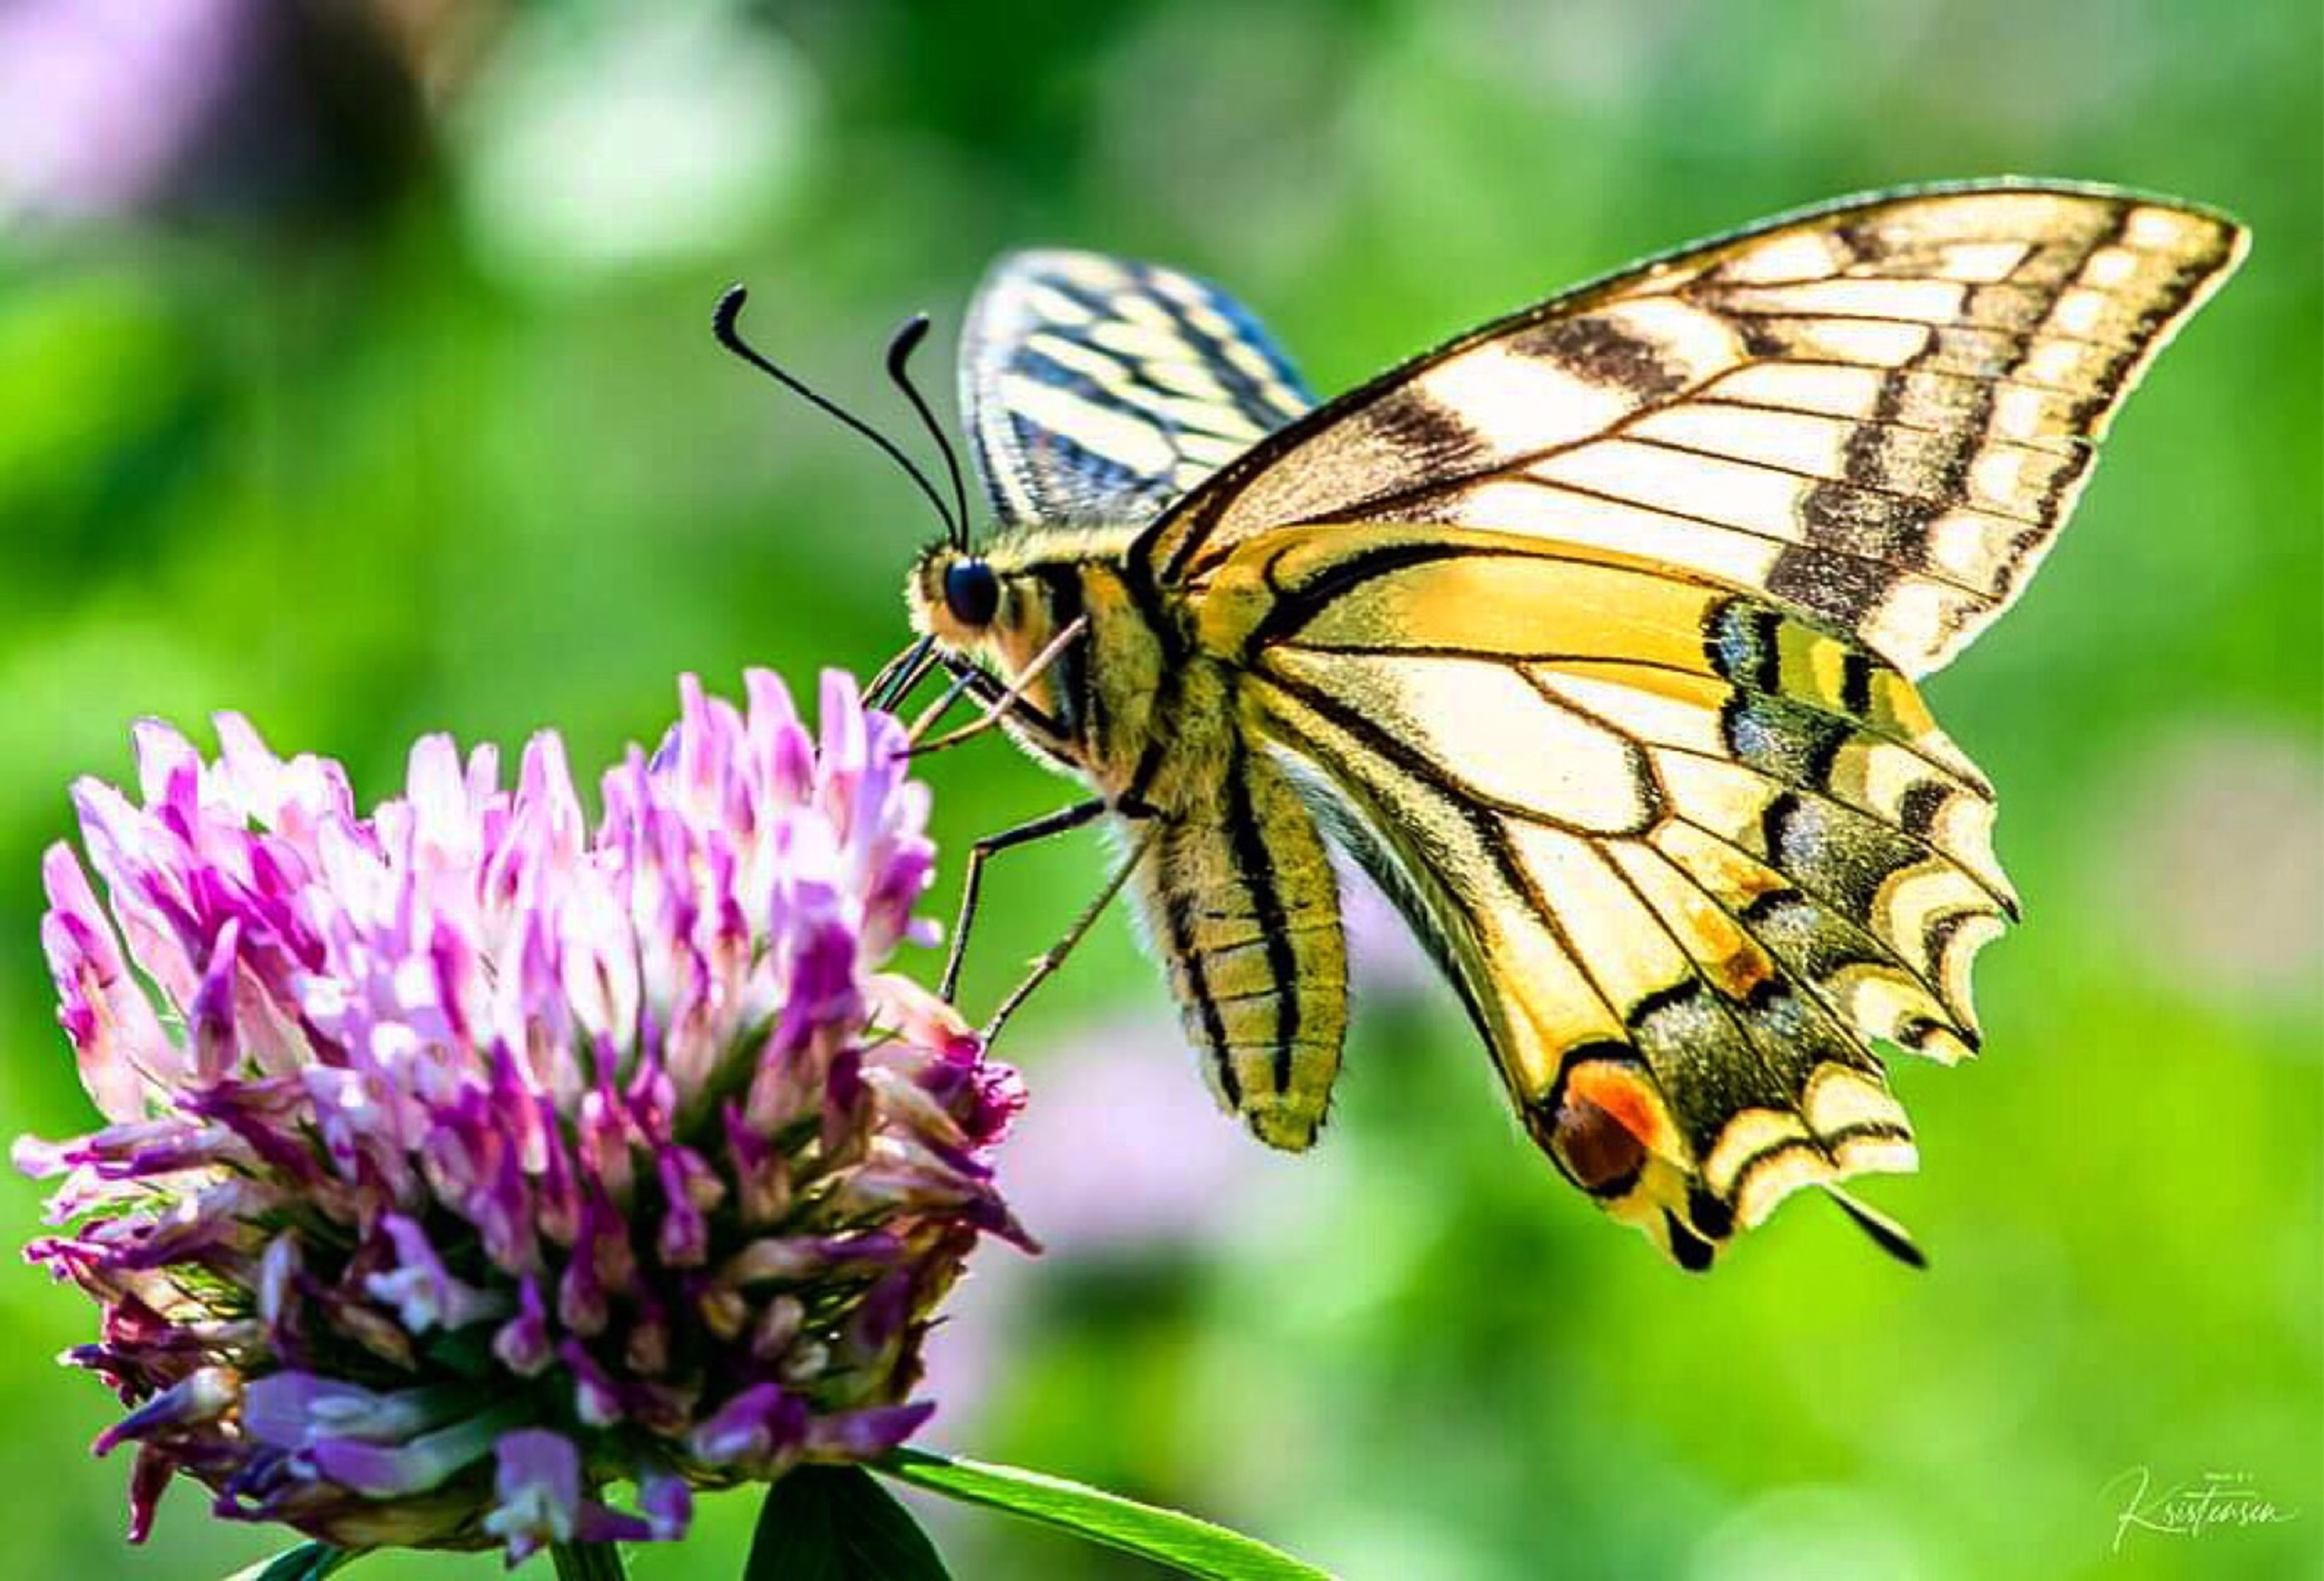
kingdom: Animalia
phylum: Arthropoda
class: Insecta
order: Lepidoptera
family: Papilionidae
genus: Papilio
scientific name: Papilio machaon
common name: Svalehale
